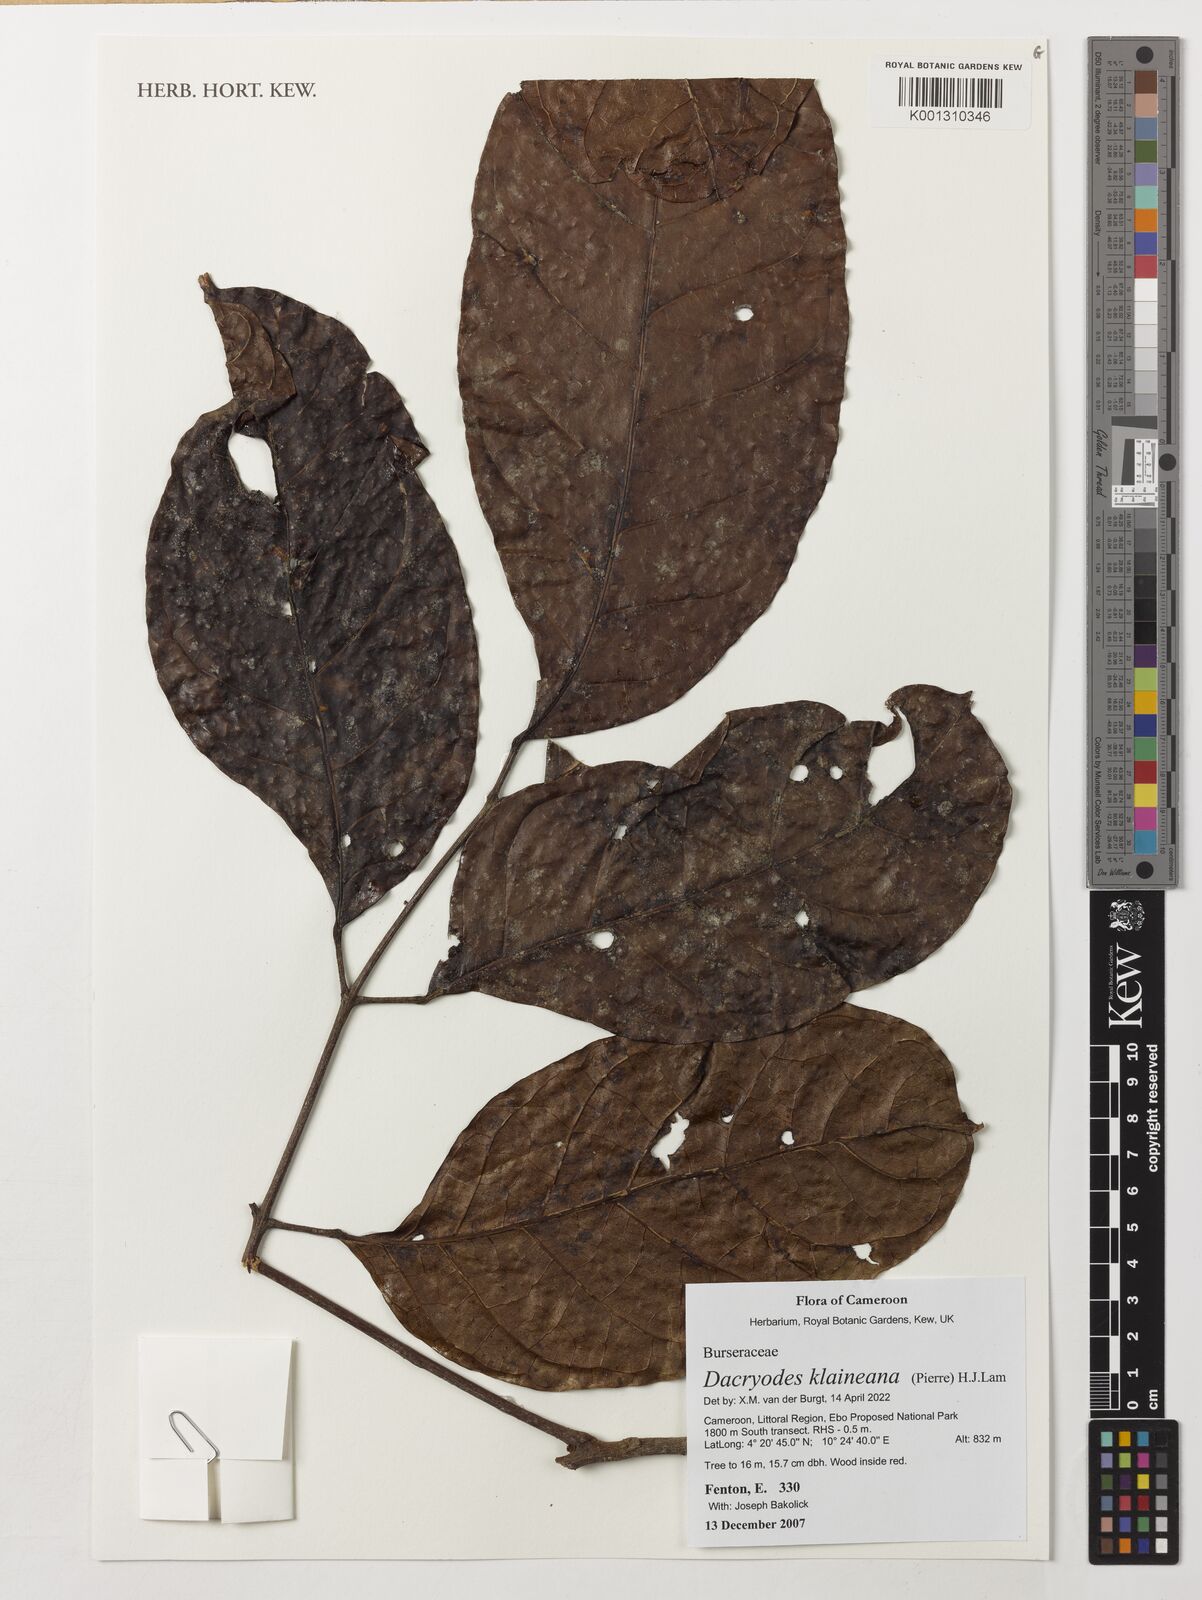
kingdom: Plantae
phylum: Tracheophyta
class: Magnoliopsida
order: Sapindales
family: Burseraceae
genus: Pachylobus
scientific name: Pachylobus klaineana
